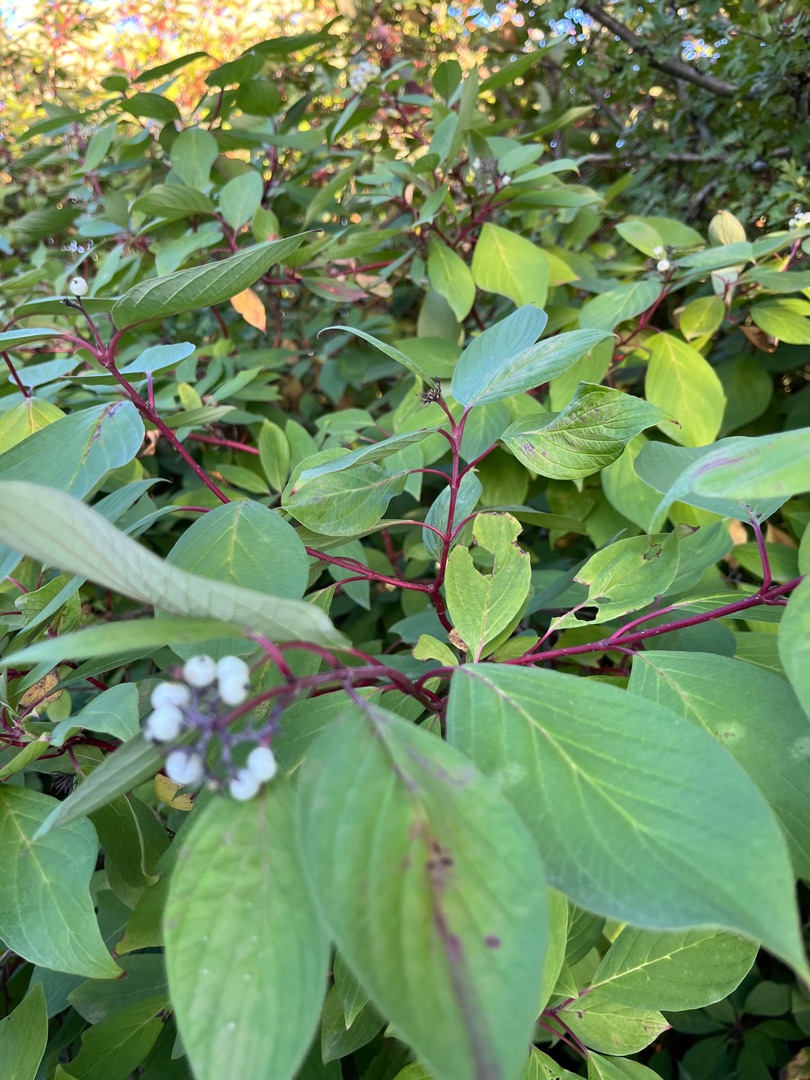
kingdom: Plantae
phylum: Tracheophyta
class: Magnoliopsida
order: Cornales
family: Cornaceae
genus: Cornus
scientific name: Cornus sericea
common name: Krybende kornel
